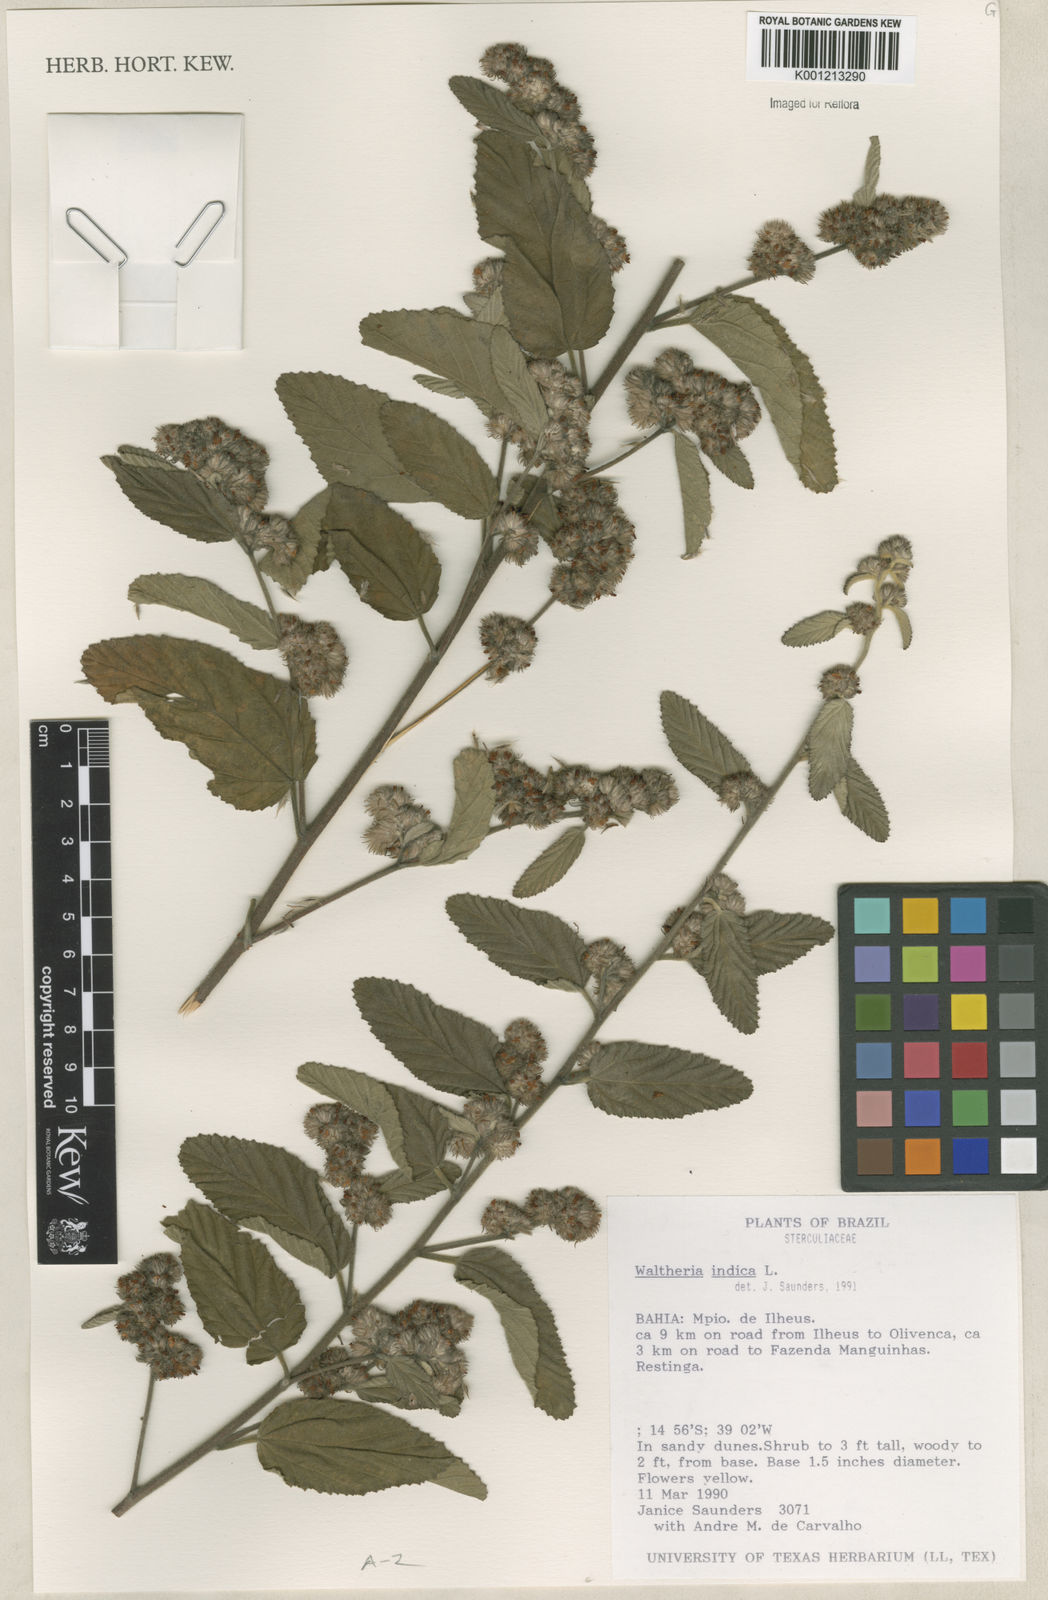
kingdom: Plantae
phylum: Tracheophyta
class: Magnoliopsida
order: Malvales
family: Malvaceae
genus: Waltheria
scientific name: Waltheria indica
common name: Leather-coat
